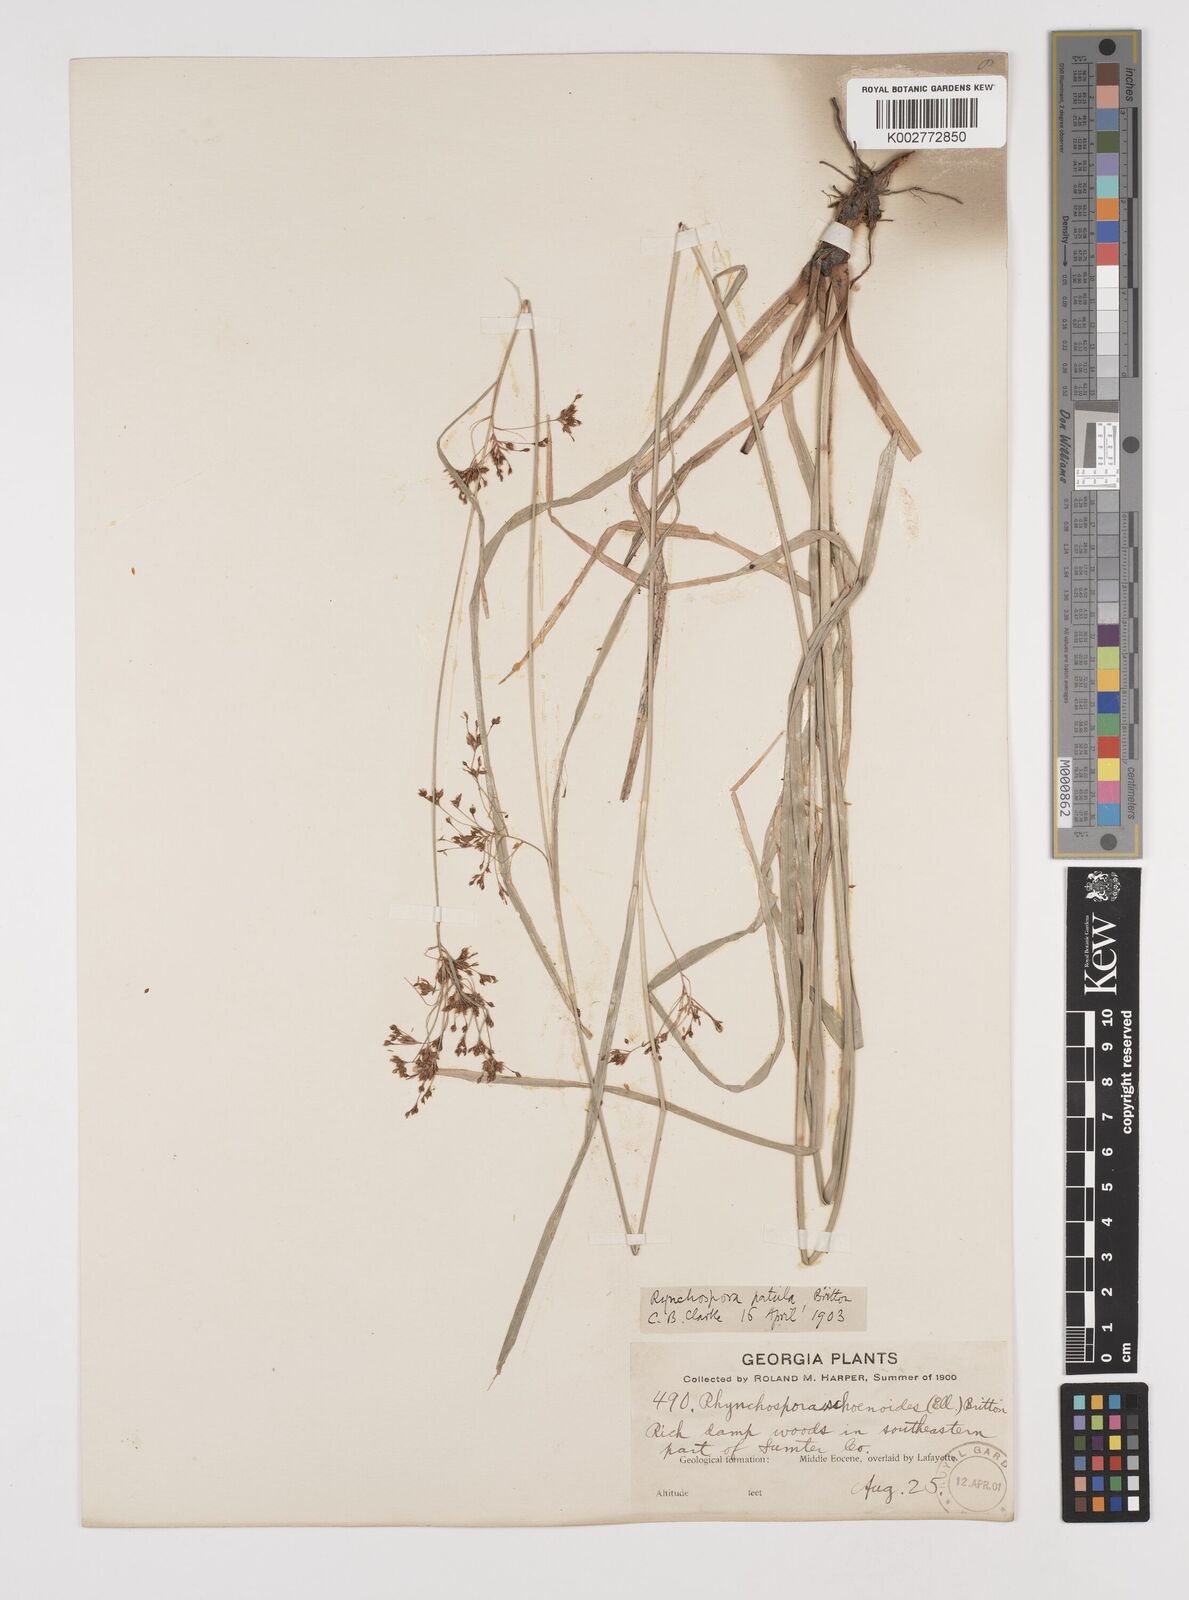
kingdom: Plantae
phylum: Tracheophyta
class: Liliopsida
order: Poales
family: Cyperaceae
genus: Rhynchospora
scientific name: Rhynchospora caduca
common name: Anglestem beaksedge
